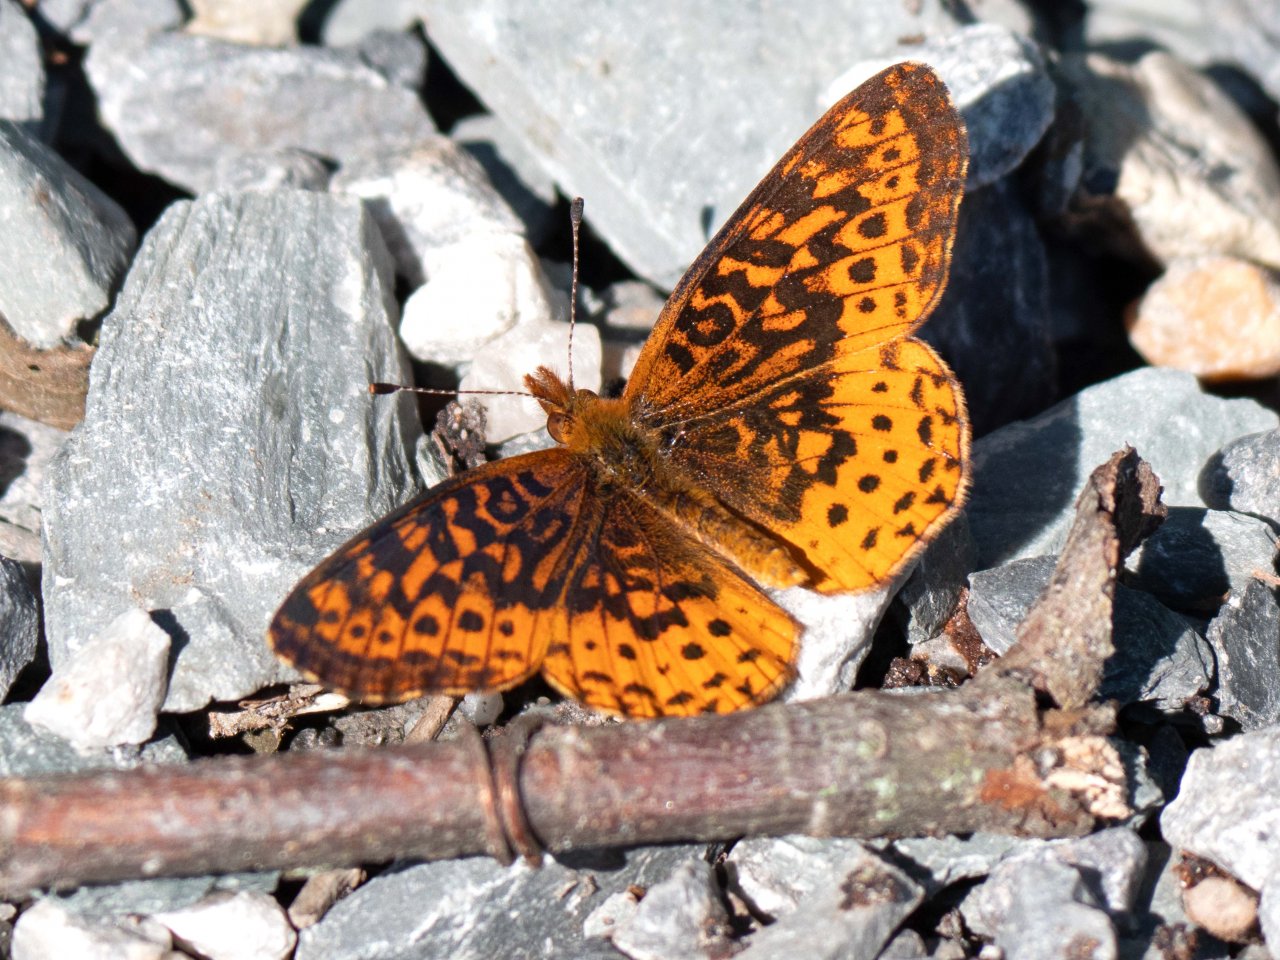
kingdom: Animalia
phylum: Arthropoda
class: Insecta
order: Lepidoptera
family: Nymphalidae
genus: Clossiana
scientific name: Clossiana toddi
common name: Meadow Fritillary
